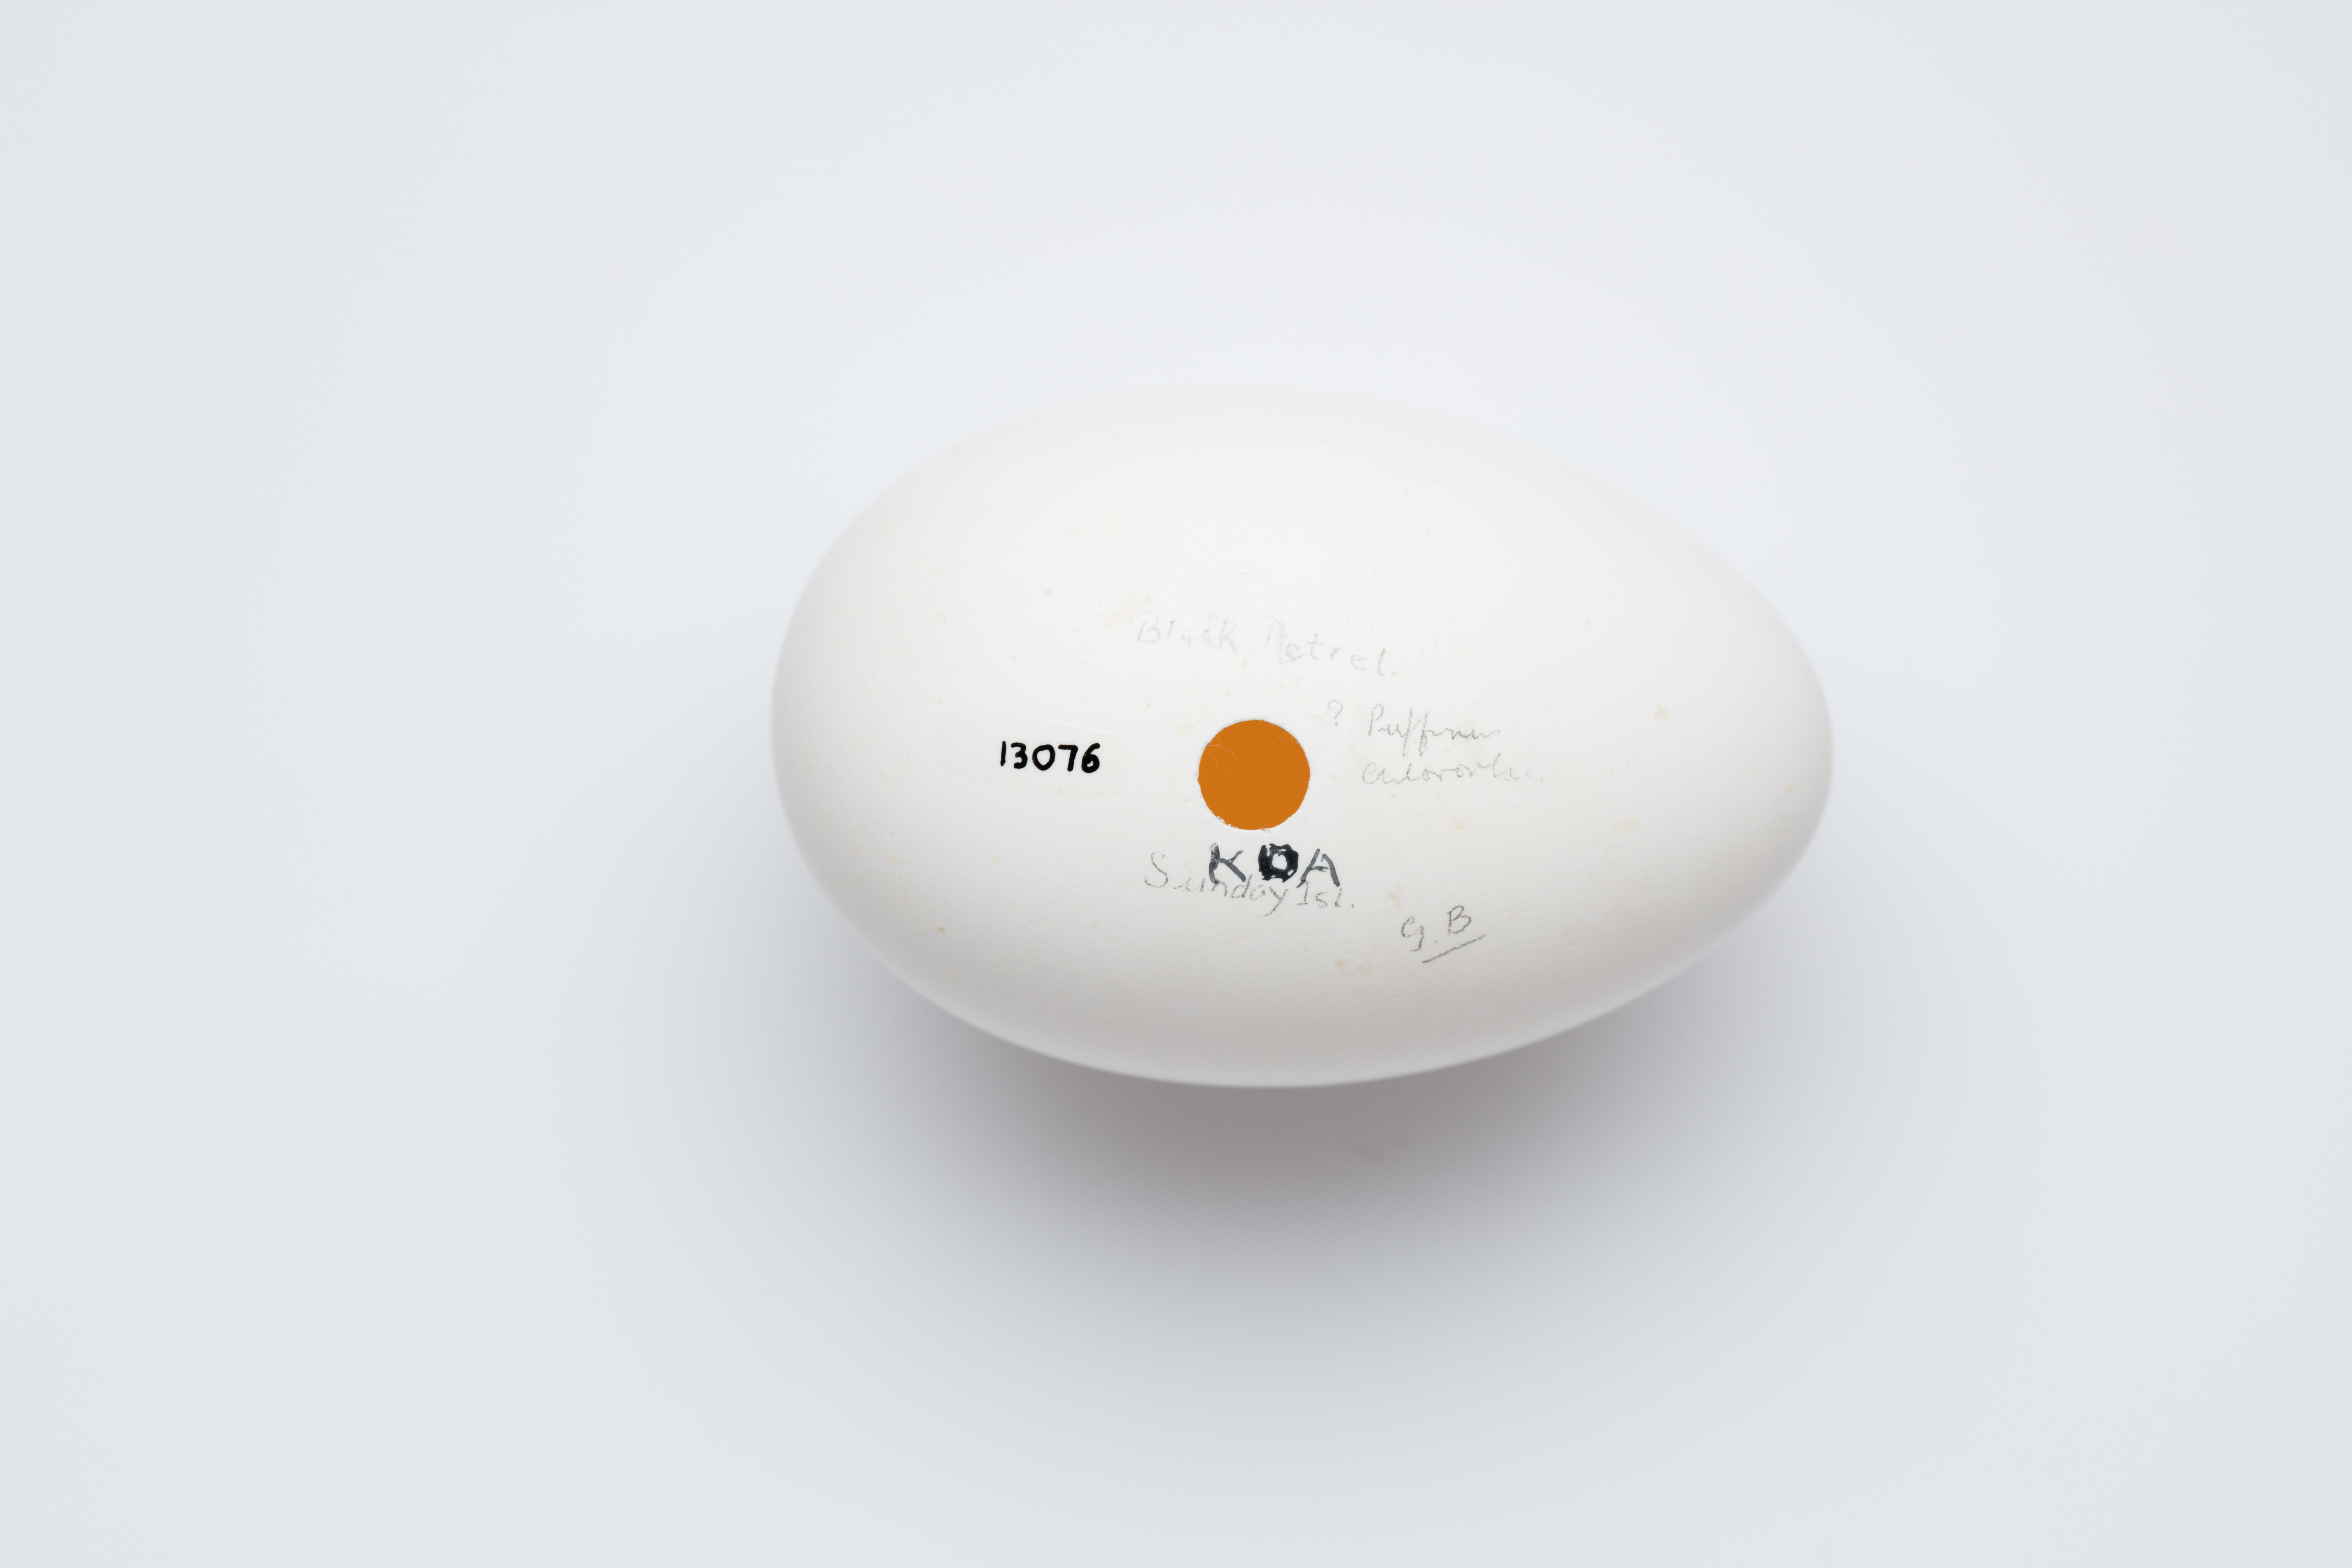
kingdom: Animalia
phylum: Chordata
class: Aves
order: Procellariiformes
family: Procellariidae
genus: Puffinus
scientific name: Puffinus pacificus
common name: Wedge-tailed shearwater
